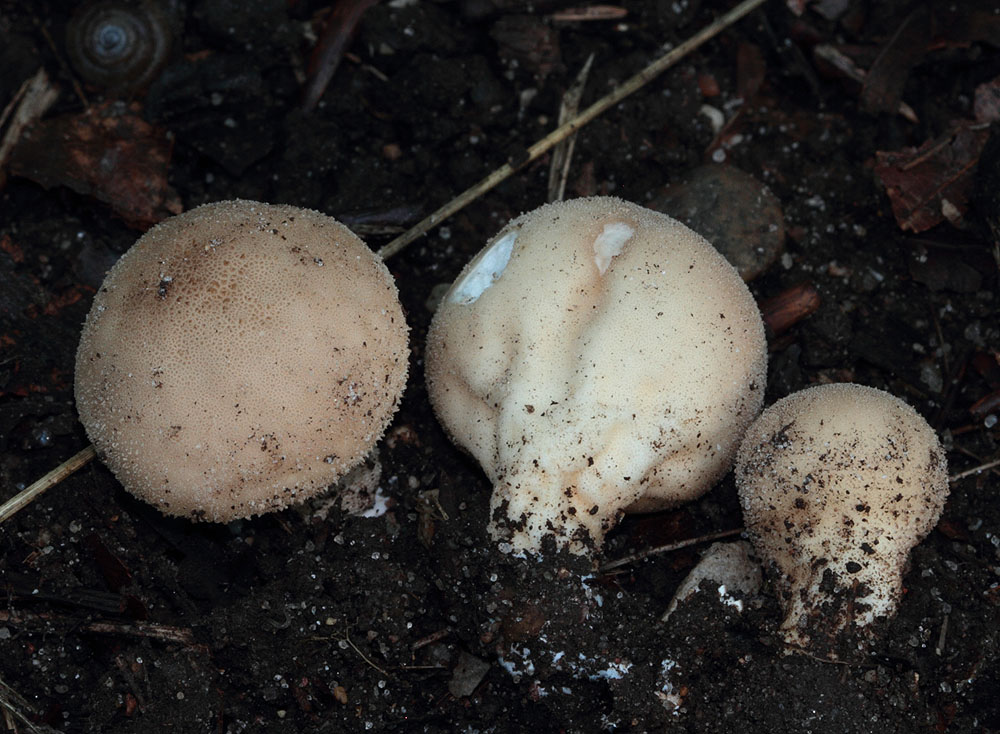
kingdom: Fungi
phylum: Basidiomycota
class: Agaricomycetes
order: Agaricales
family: Lycoperdaceae
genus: Lycoperdon
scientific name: Lycoperdon molle
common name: skov-støvbold
